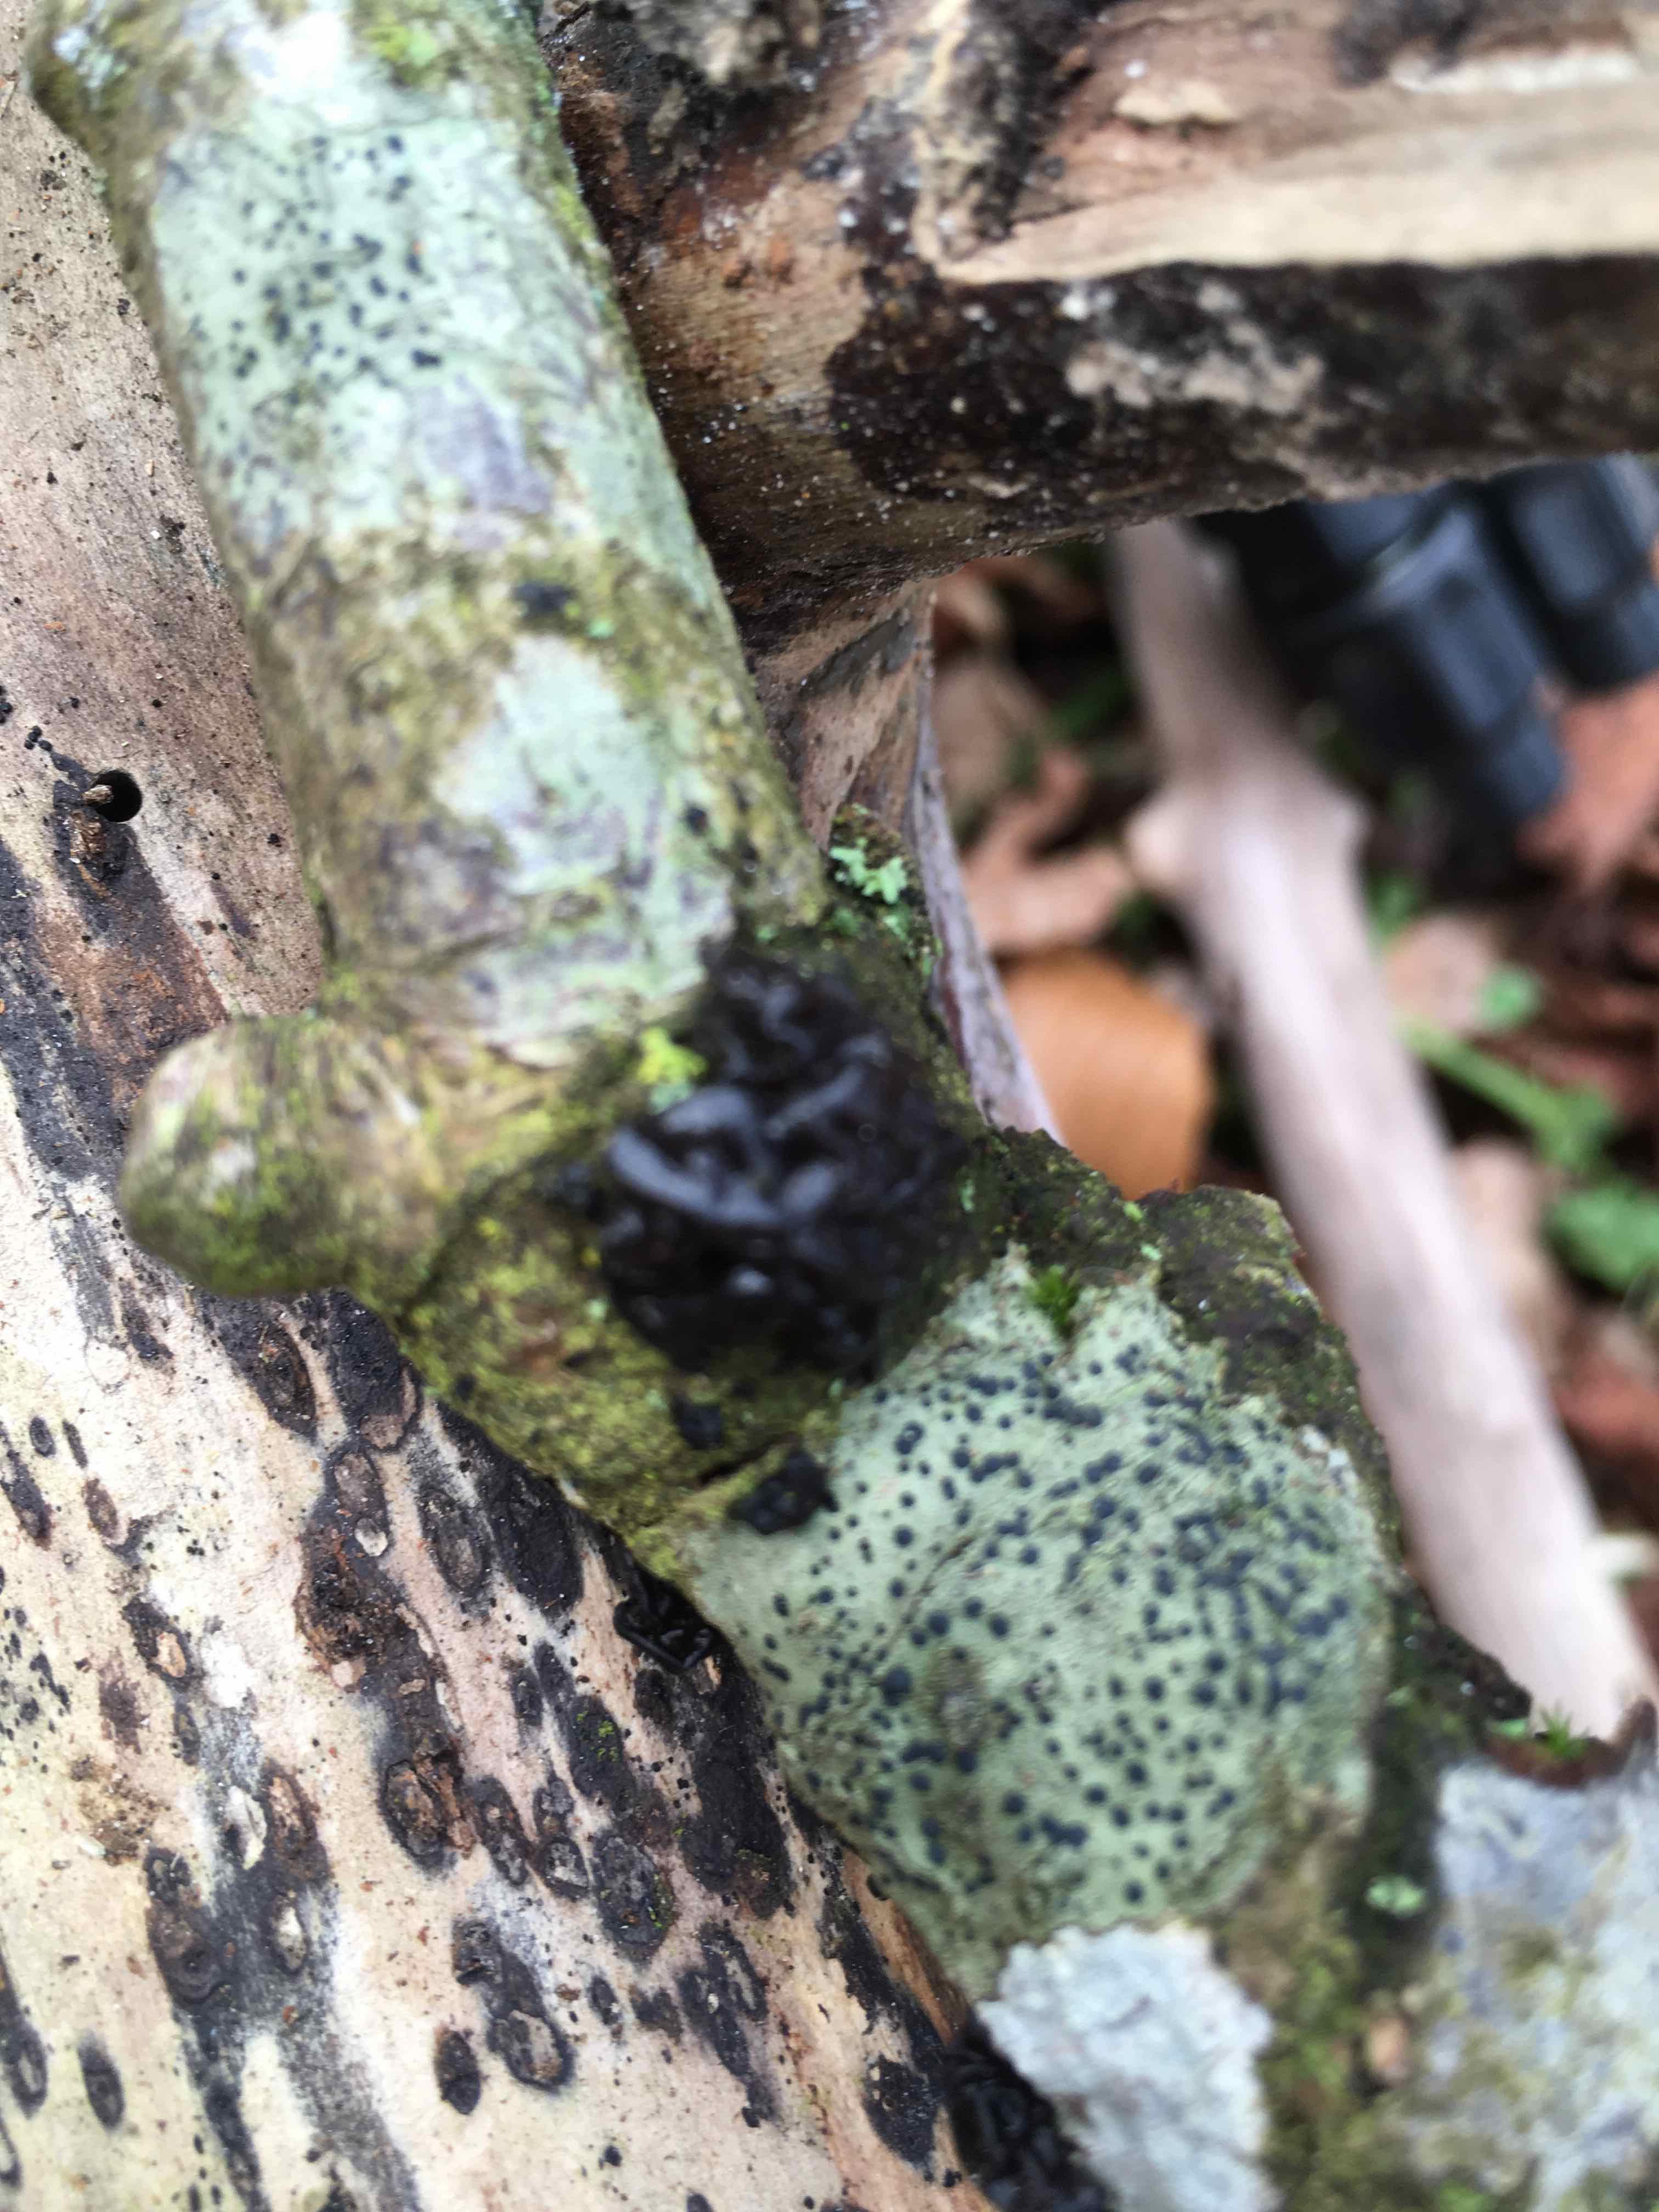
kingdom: Fungi
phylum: Basidiomycota
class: Agaricomycetes
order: Auriculariales
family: Auriculariaceae
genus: Exidia
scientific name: Exidia nigricans
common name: almindelig bævretop
